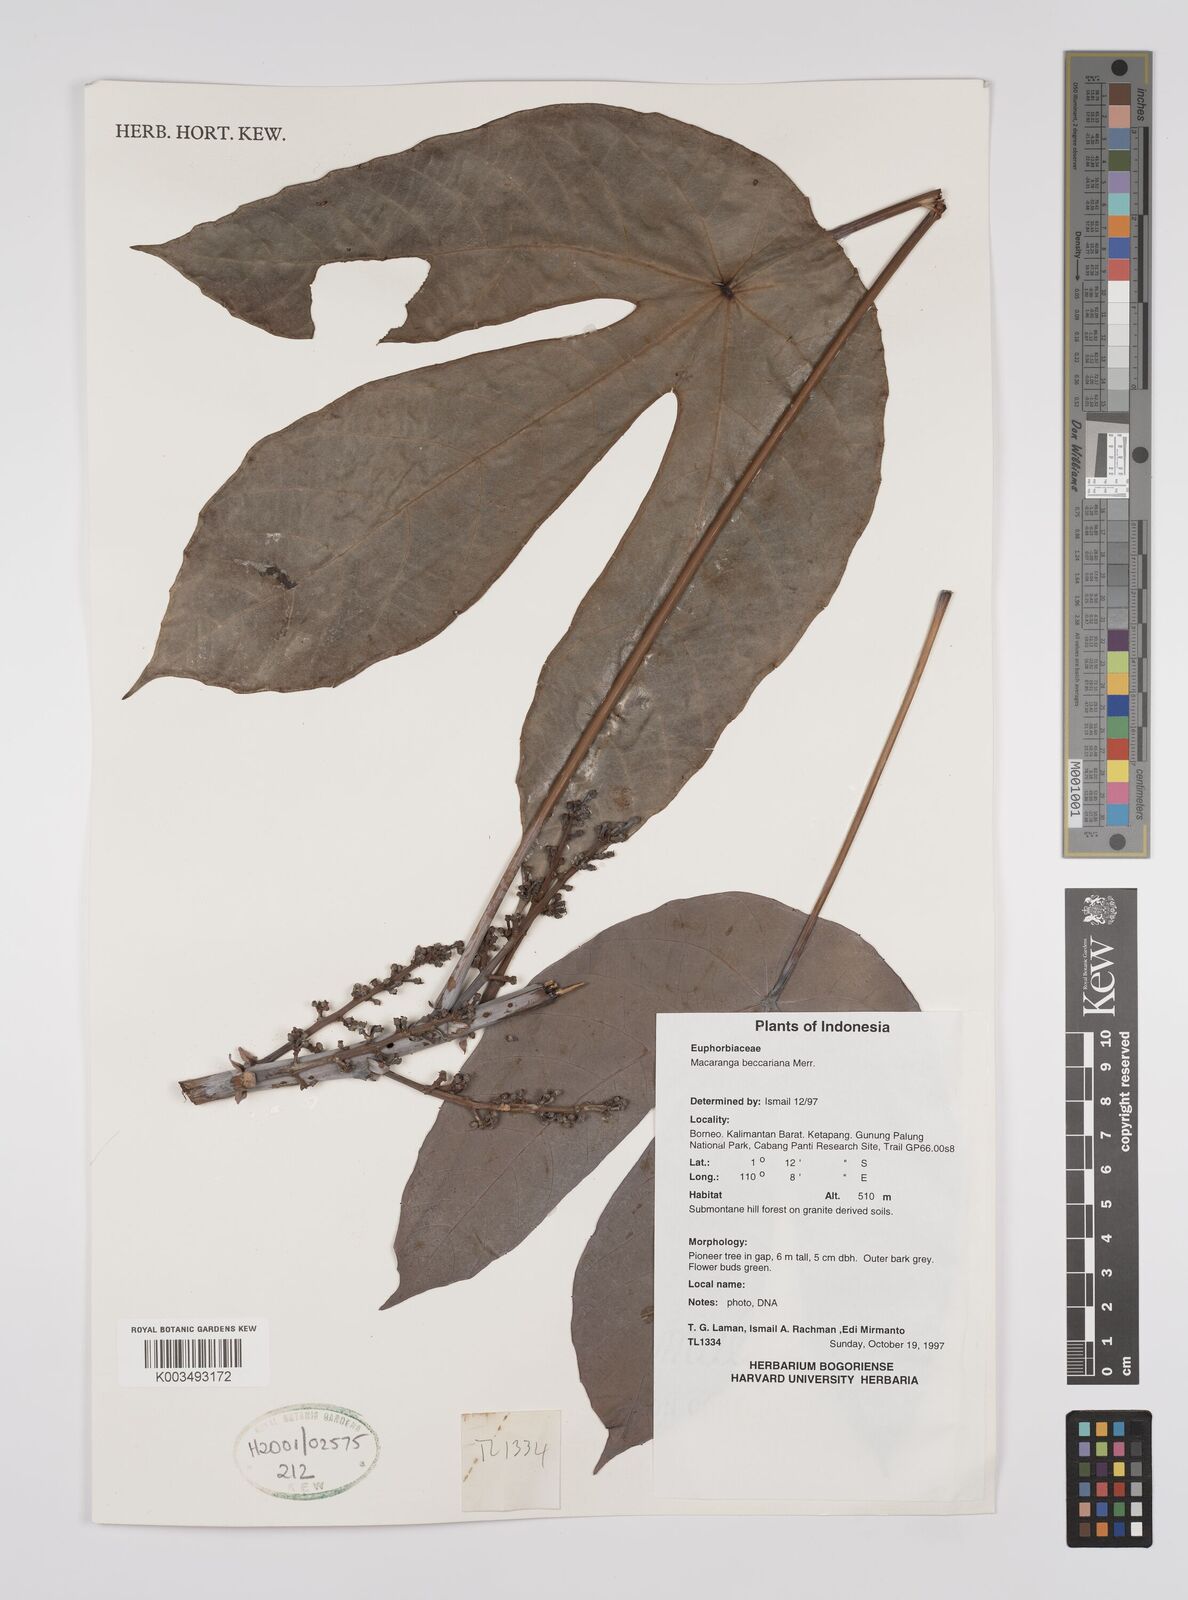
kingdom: Plantae
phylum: Tracheophyta
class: Magnoliopsida
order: Malpighiales
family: Euphorbiaceae
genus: Macaranga
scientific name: Macaranga beccariana
